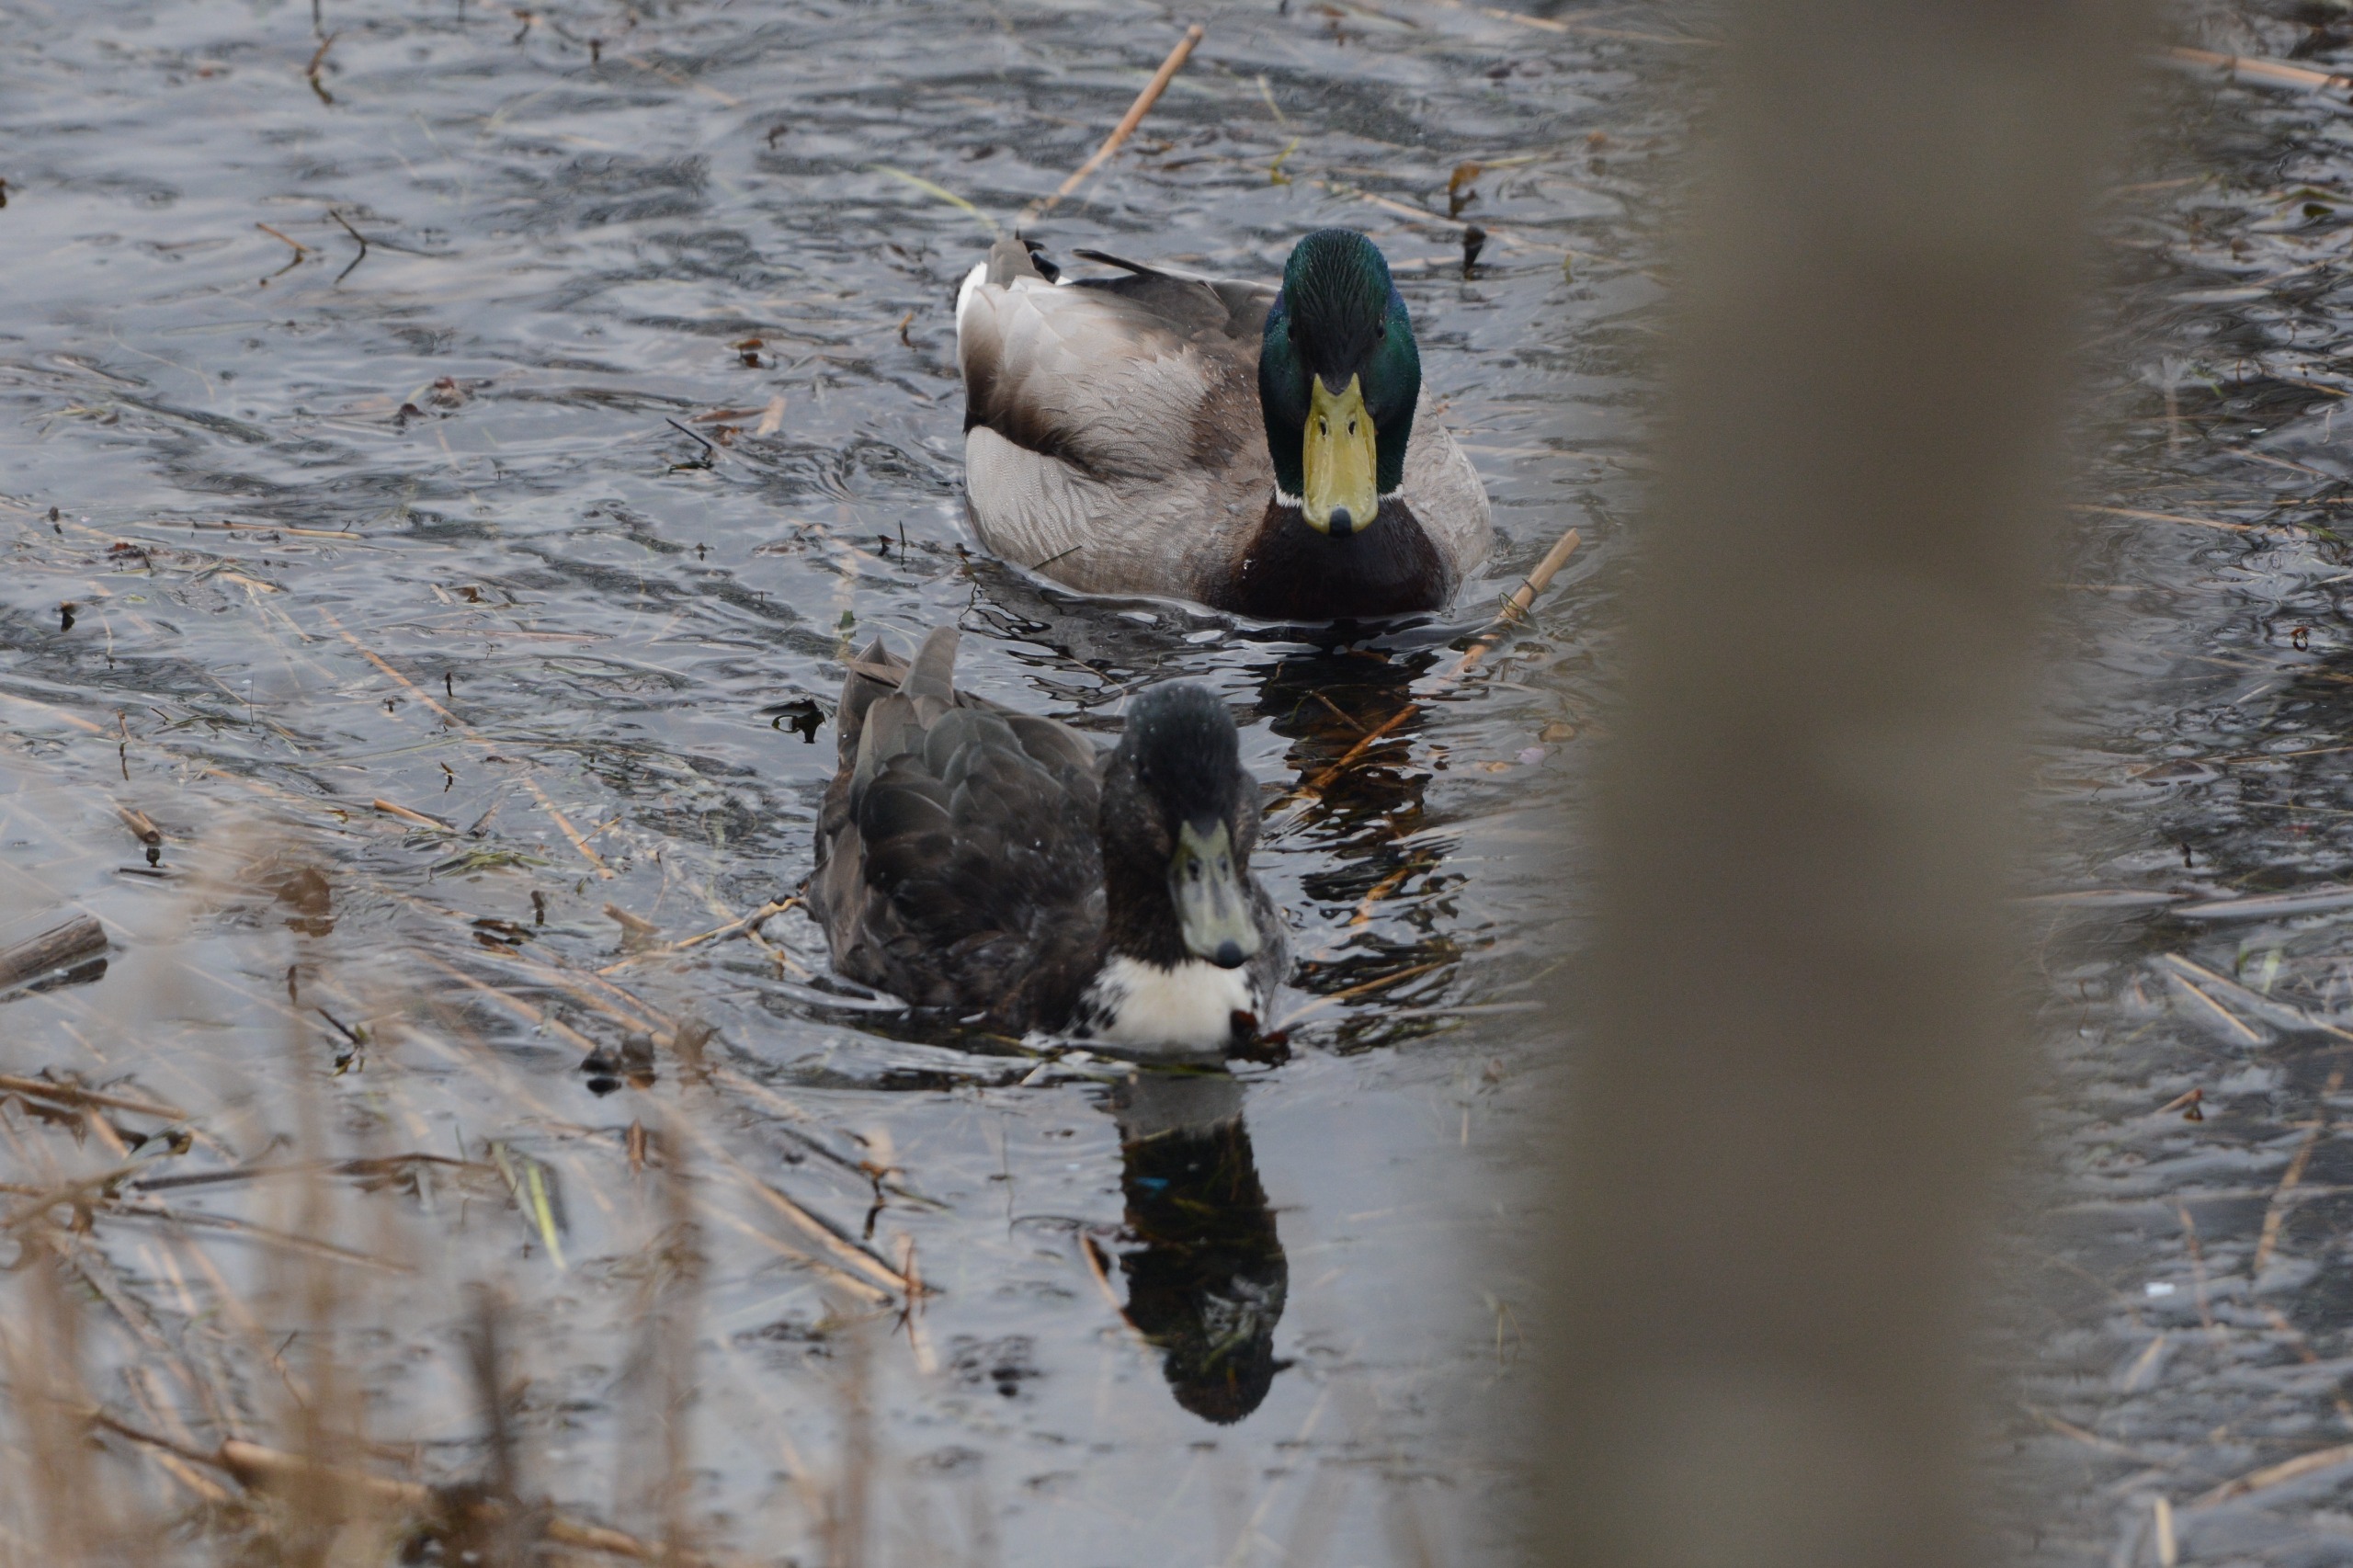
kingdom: Animalia
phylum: Chordata
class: Aves
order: Anseriformes
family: Anatidae
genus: Anas
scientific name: Anas platyrhynchos
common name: Gråand
